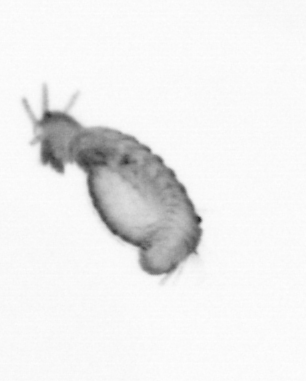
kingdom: Animalia
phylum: Annelida
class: Polychaeta
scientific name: Polychaeta
